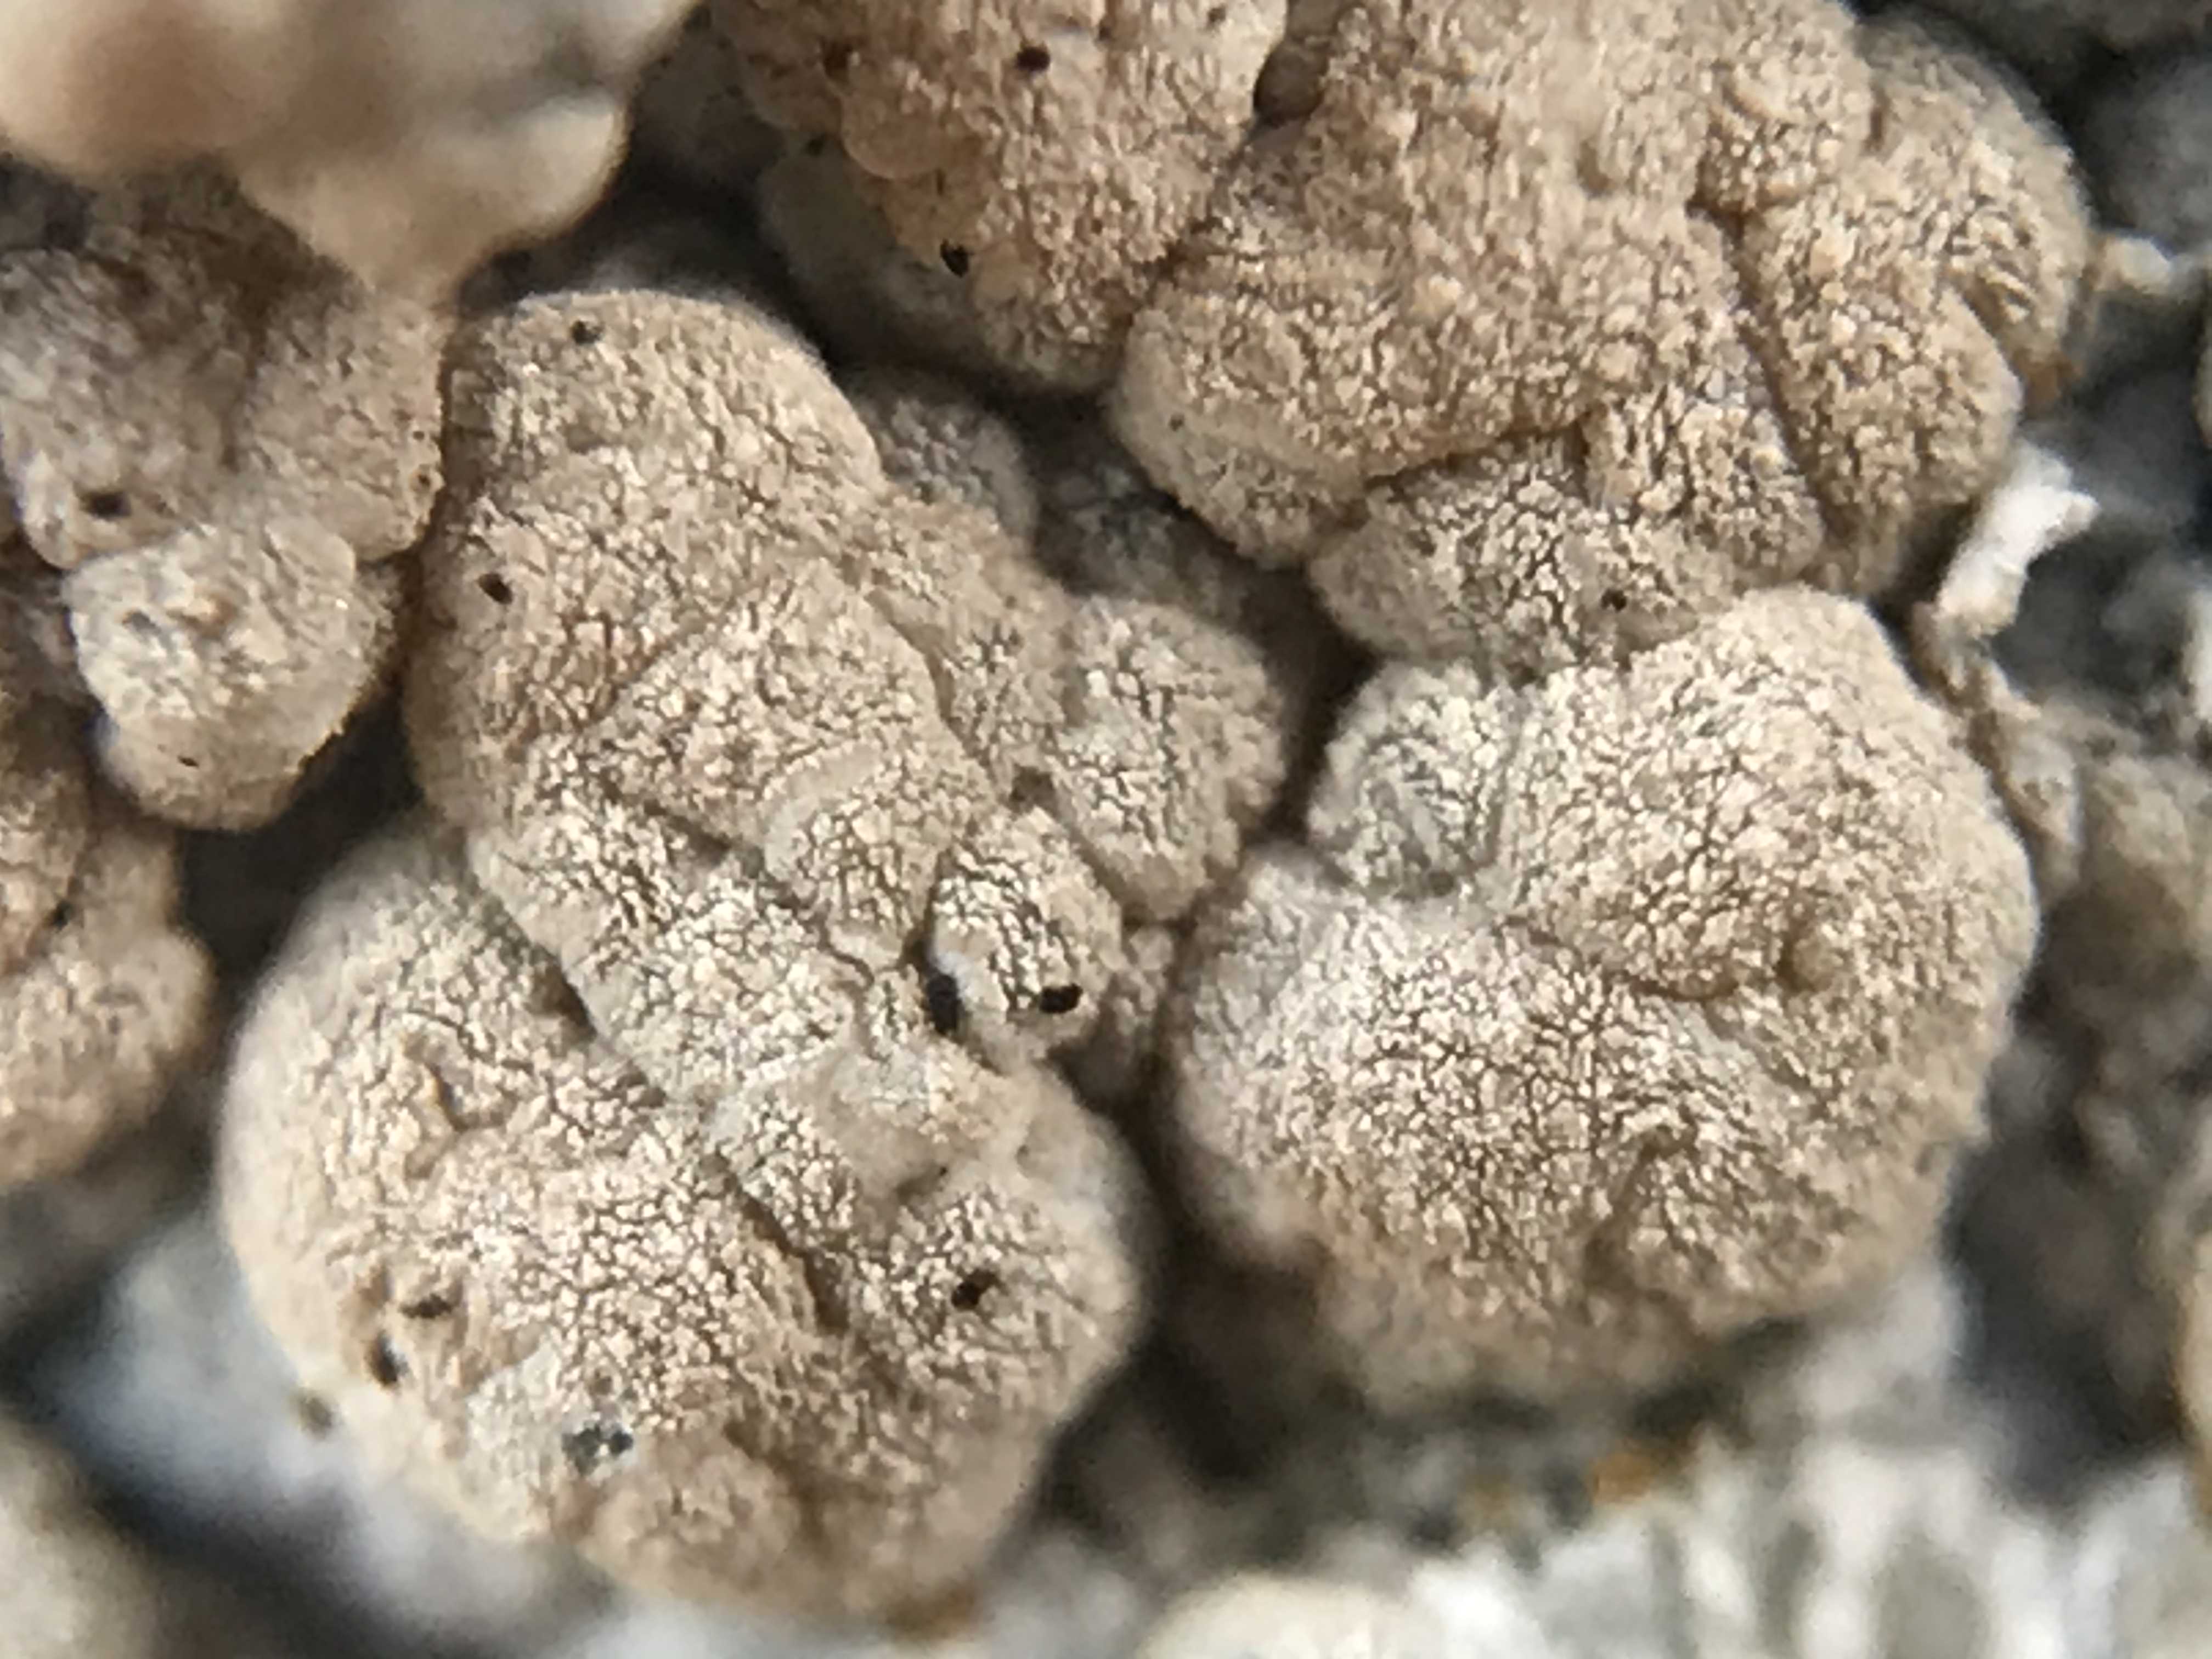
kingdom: Fungi
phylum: Ascomycota
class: Lecanoromycetes
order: Lecanorales
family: Lecanoraceae
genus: Glaucomaria
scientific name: Glaucomaria rupicola
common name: stengærde-kantskivelav
